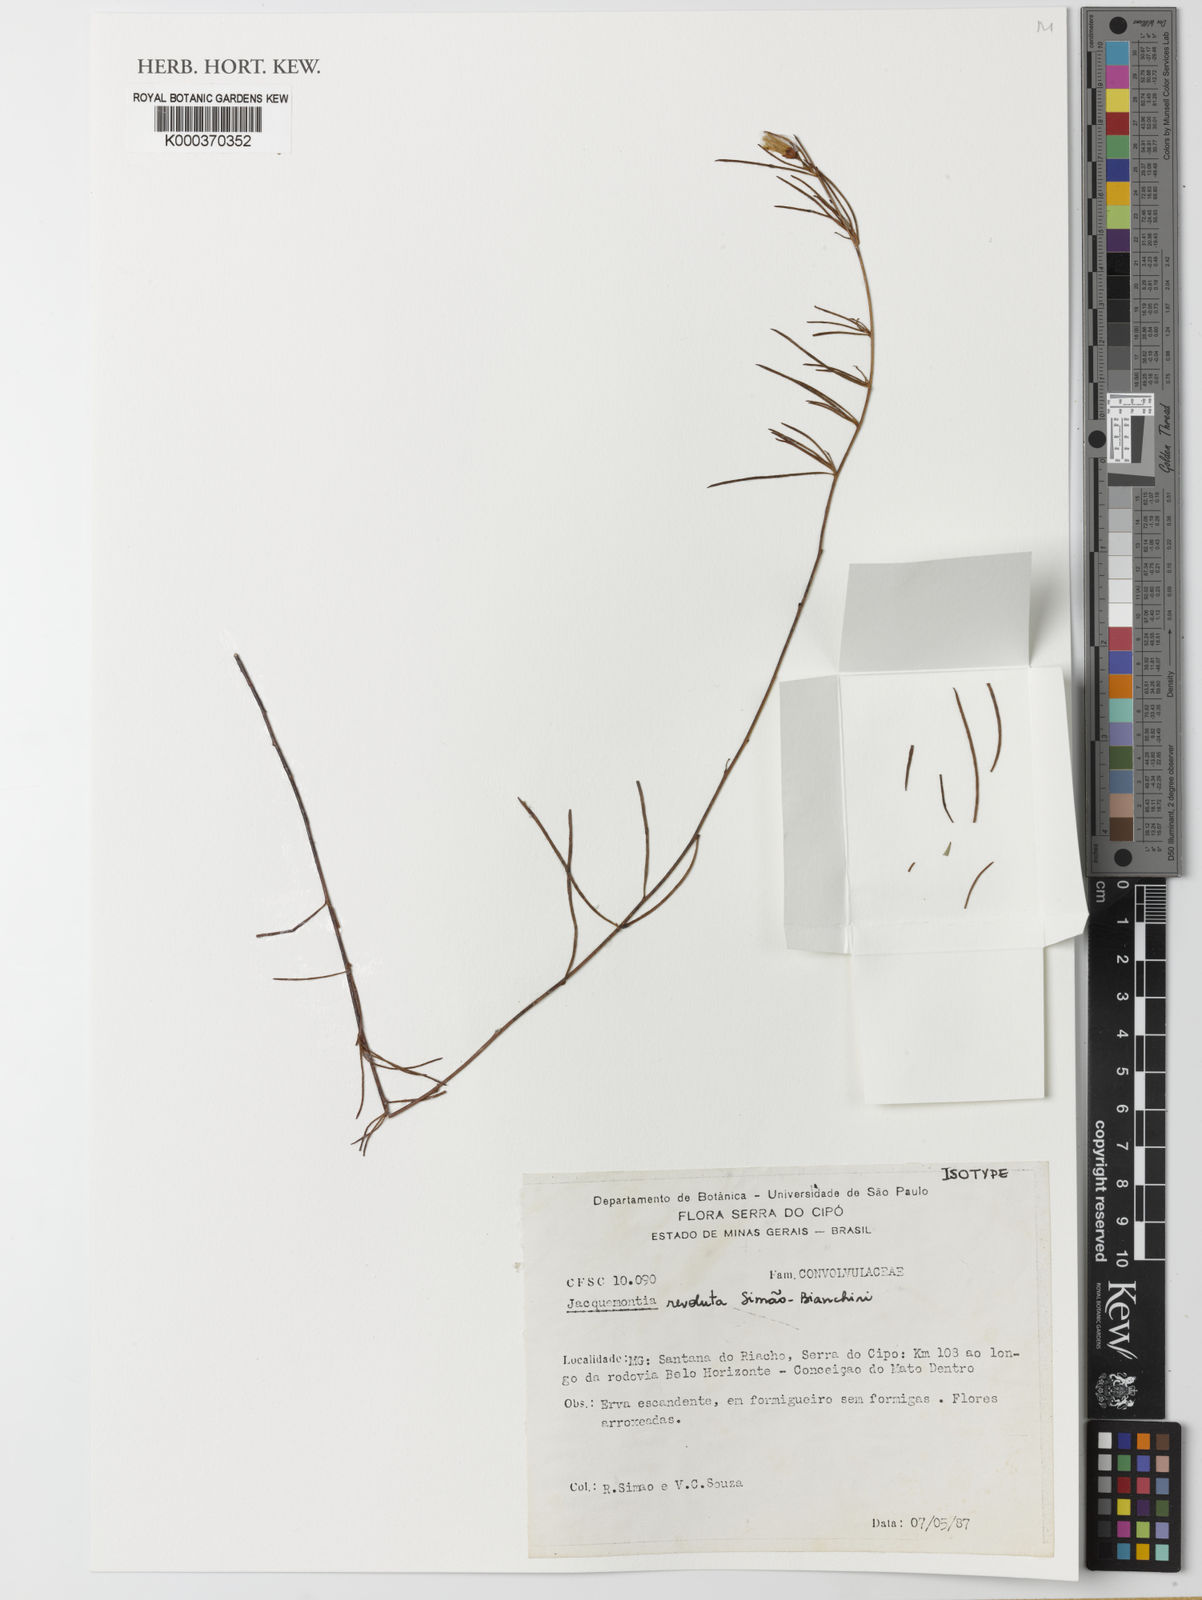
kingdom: Plantae
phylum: Tracheophyta
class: Magnoliopsida
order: Solanales
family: Convolvulaceae
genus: Jacquemontia
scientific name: Jacquemontia
